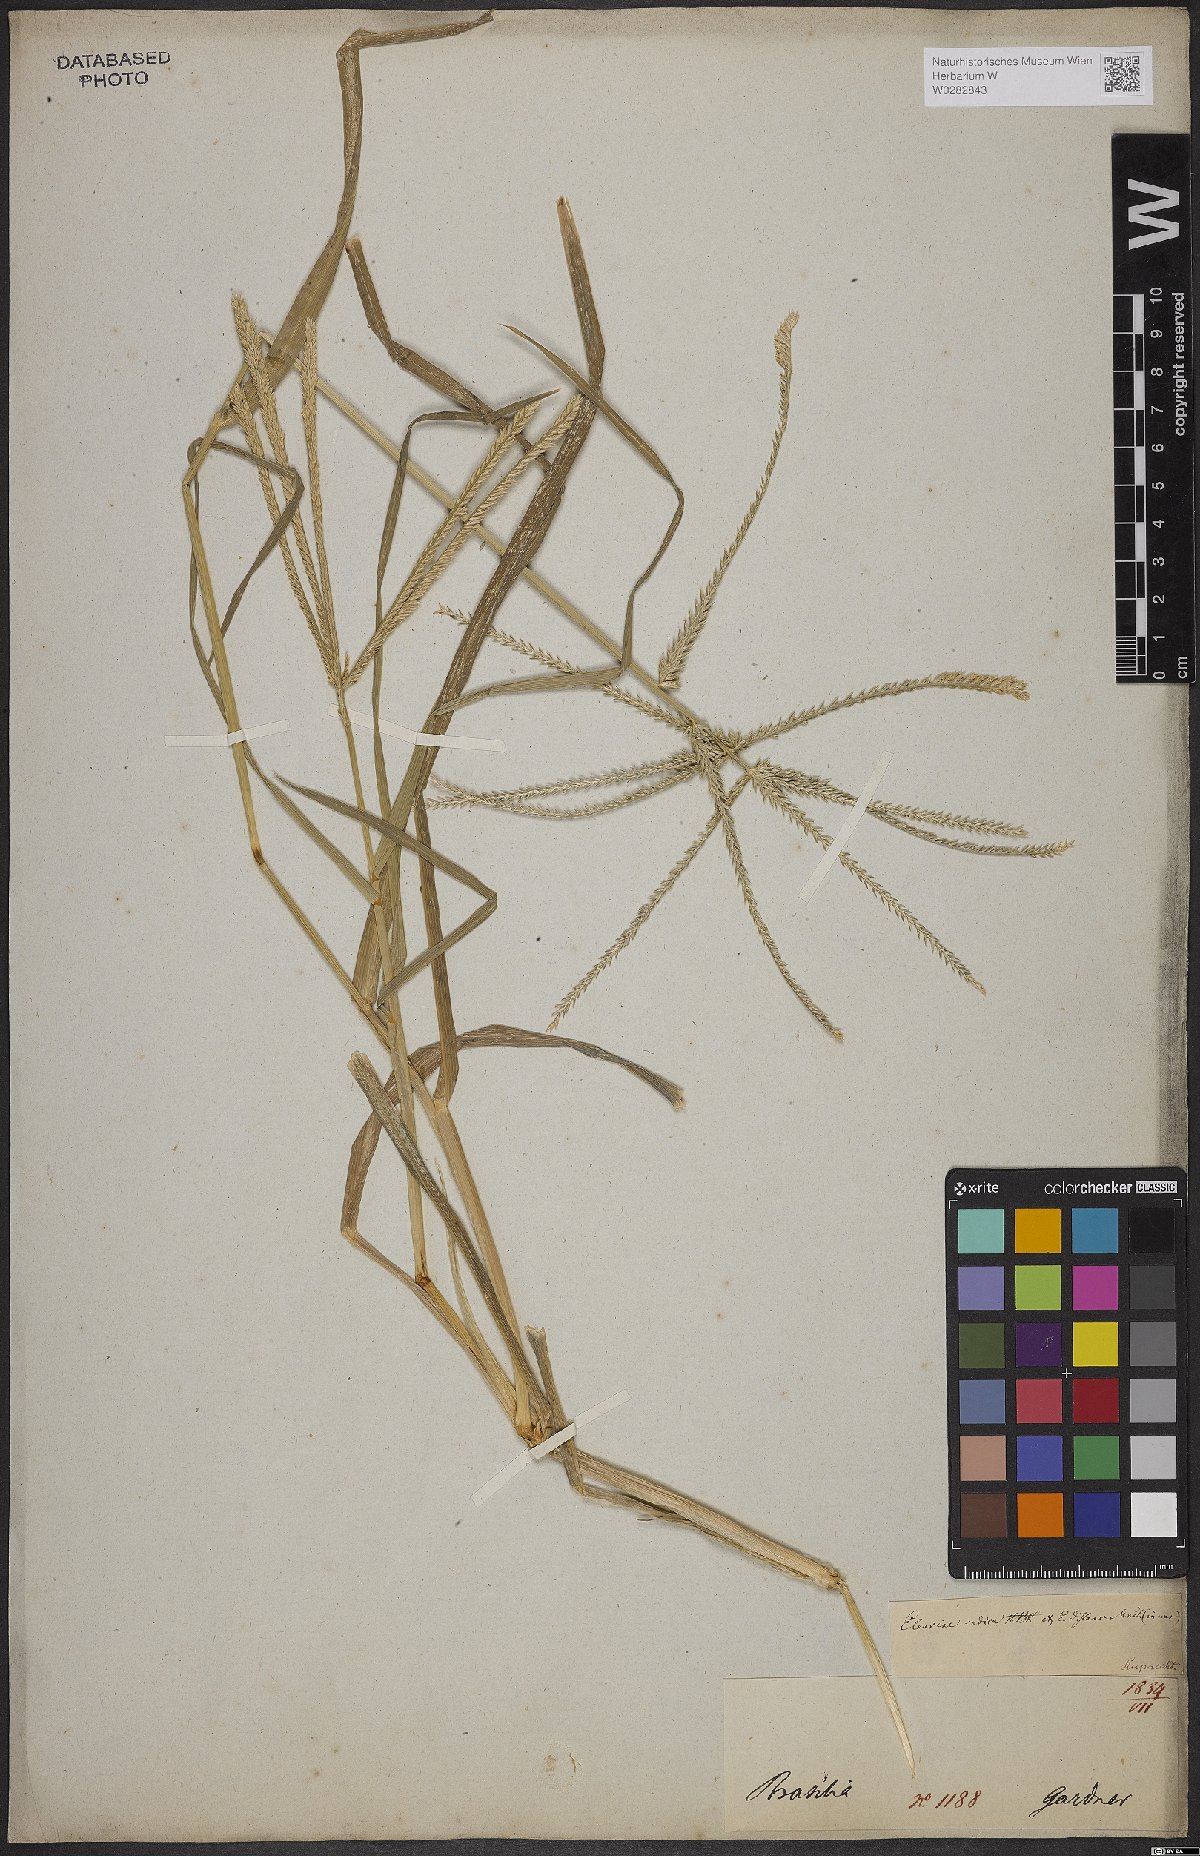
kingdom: Plantae
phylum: Tracheophyta
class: Liliopsida
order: Poales
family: Poaceae
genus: Eleusine
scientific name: Eleusine indica
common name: Yard-grass
